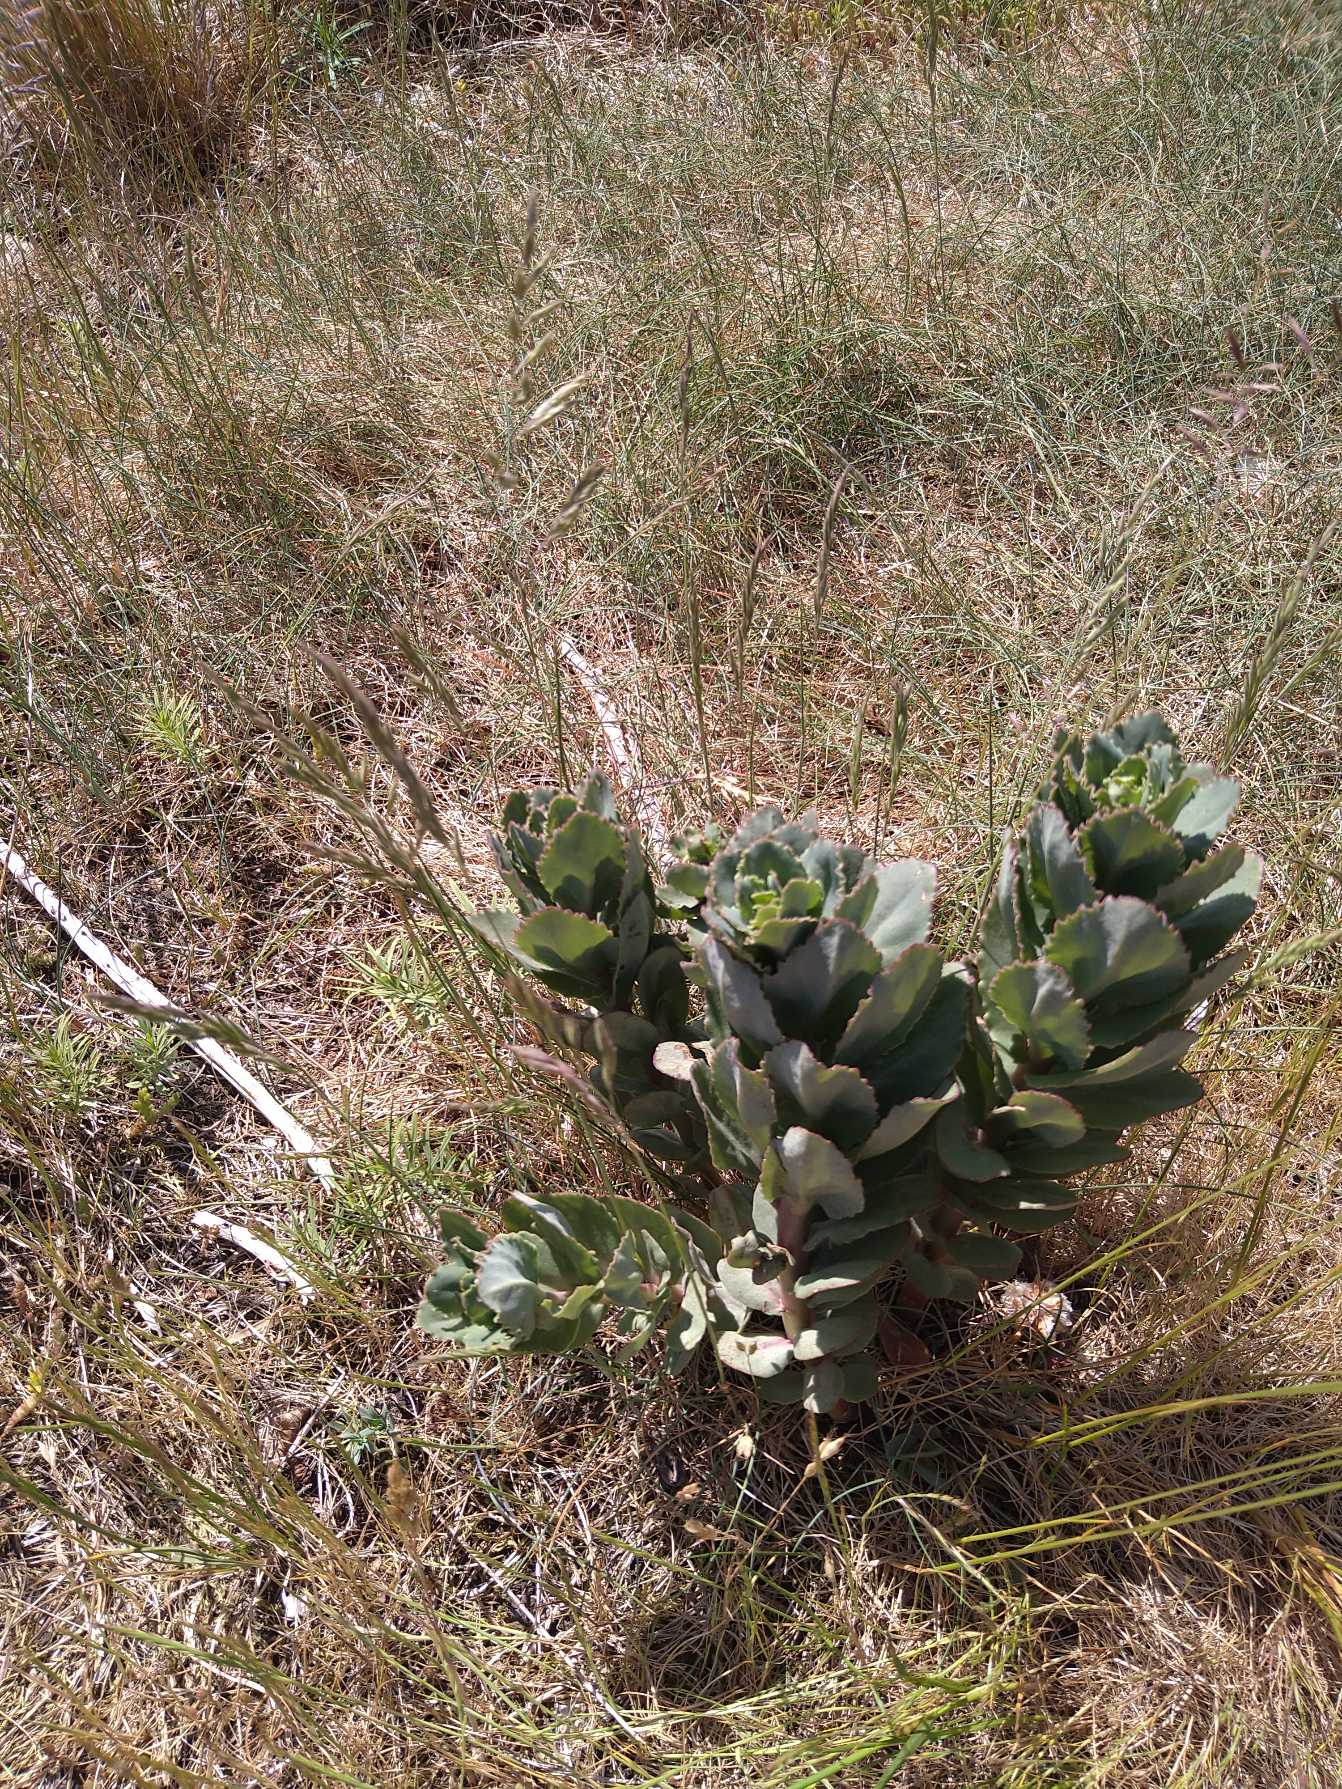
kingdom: Plantae
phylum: Tracheophyta
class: Magnoliopsida
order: Saxifragales
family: Crassulaceae
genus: Hylotelephium
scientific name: Hylotelephium telephium
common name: Sankthansurt
